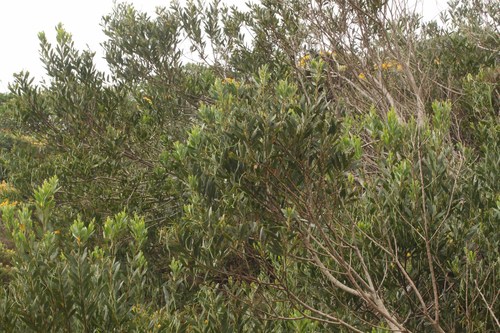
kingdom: Plantae
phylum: Tracheophyta
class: Magnoliopsida
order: Fabales
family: Fabaceae
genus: Acacia
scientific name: Acacia longifolia
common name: Sydney golden wattle
